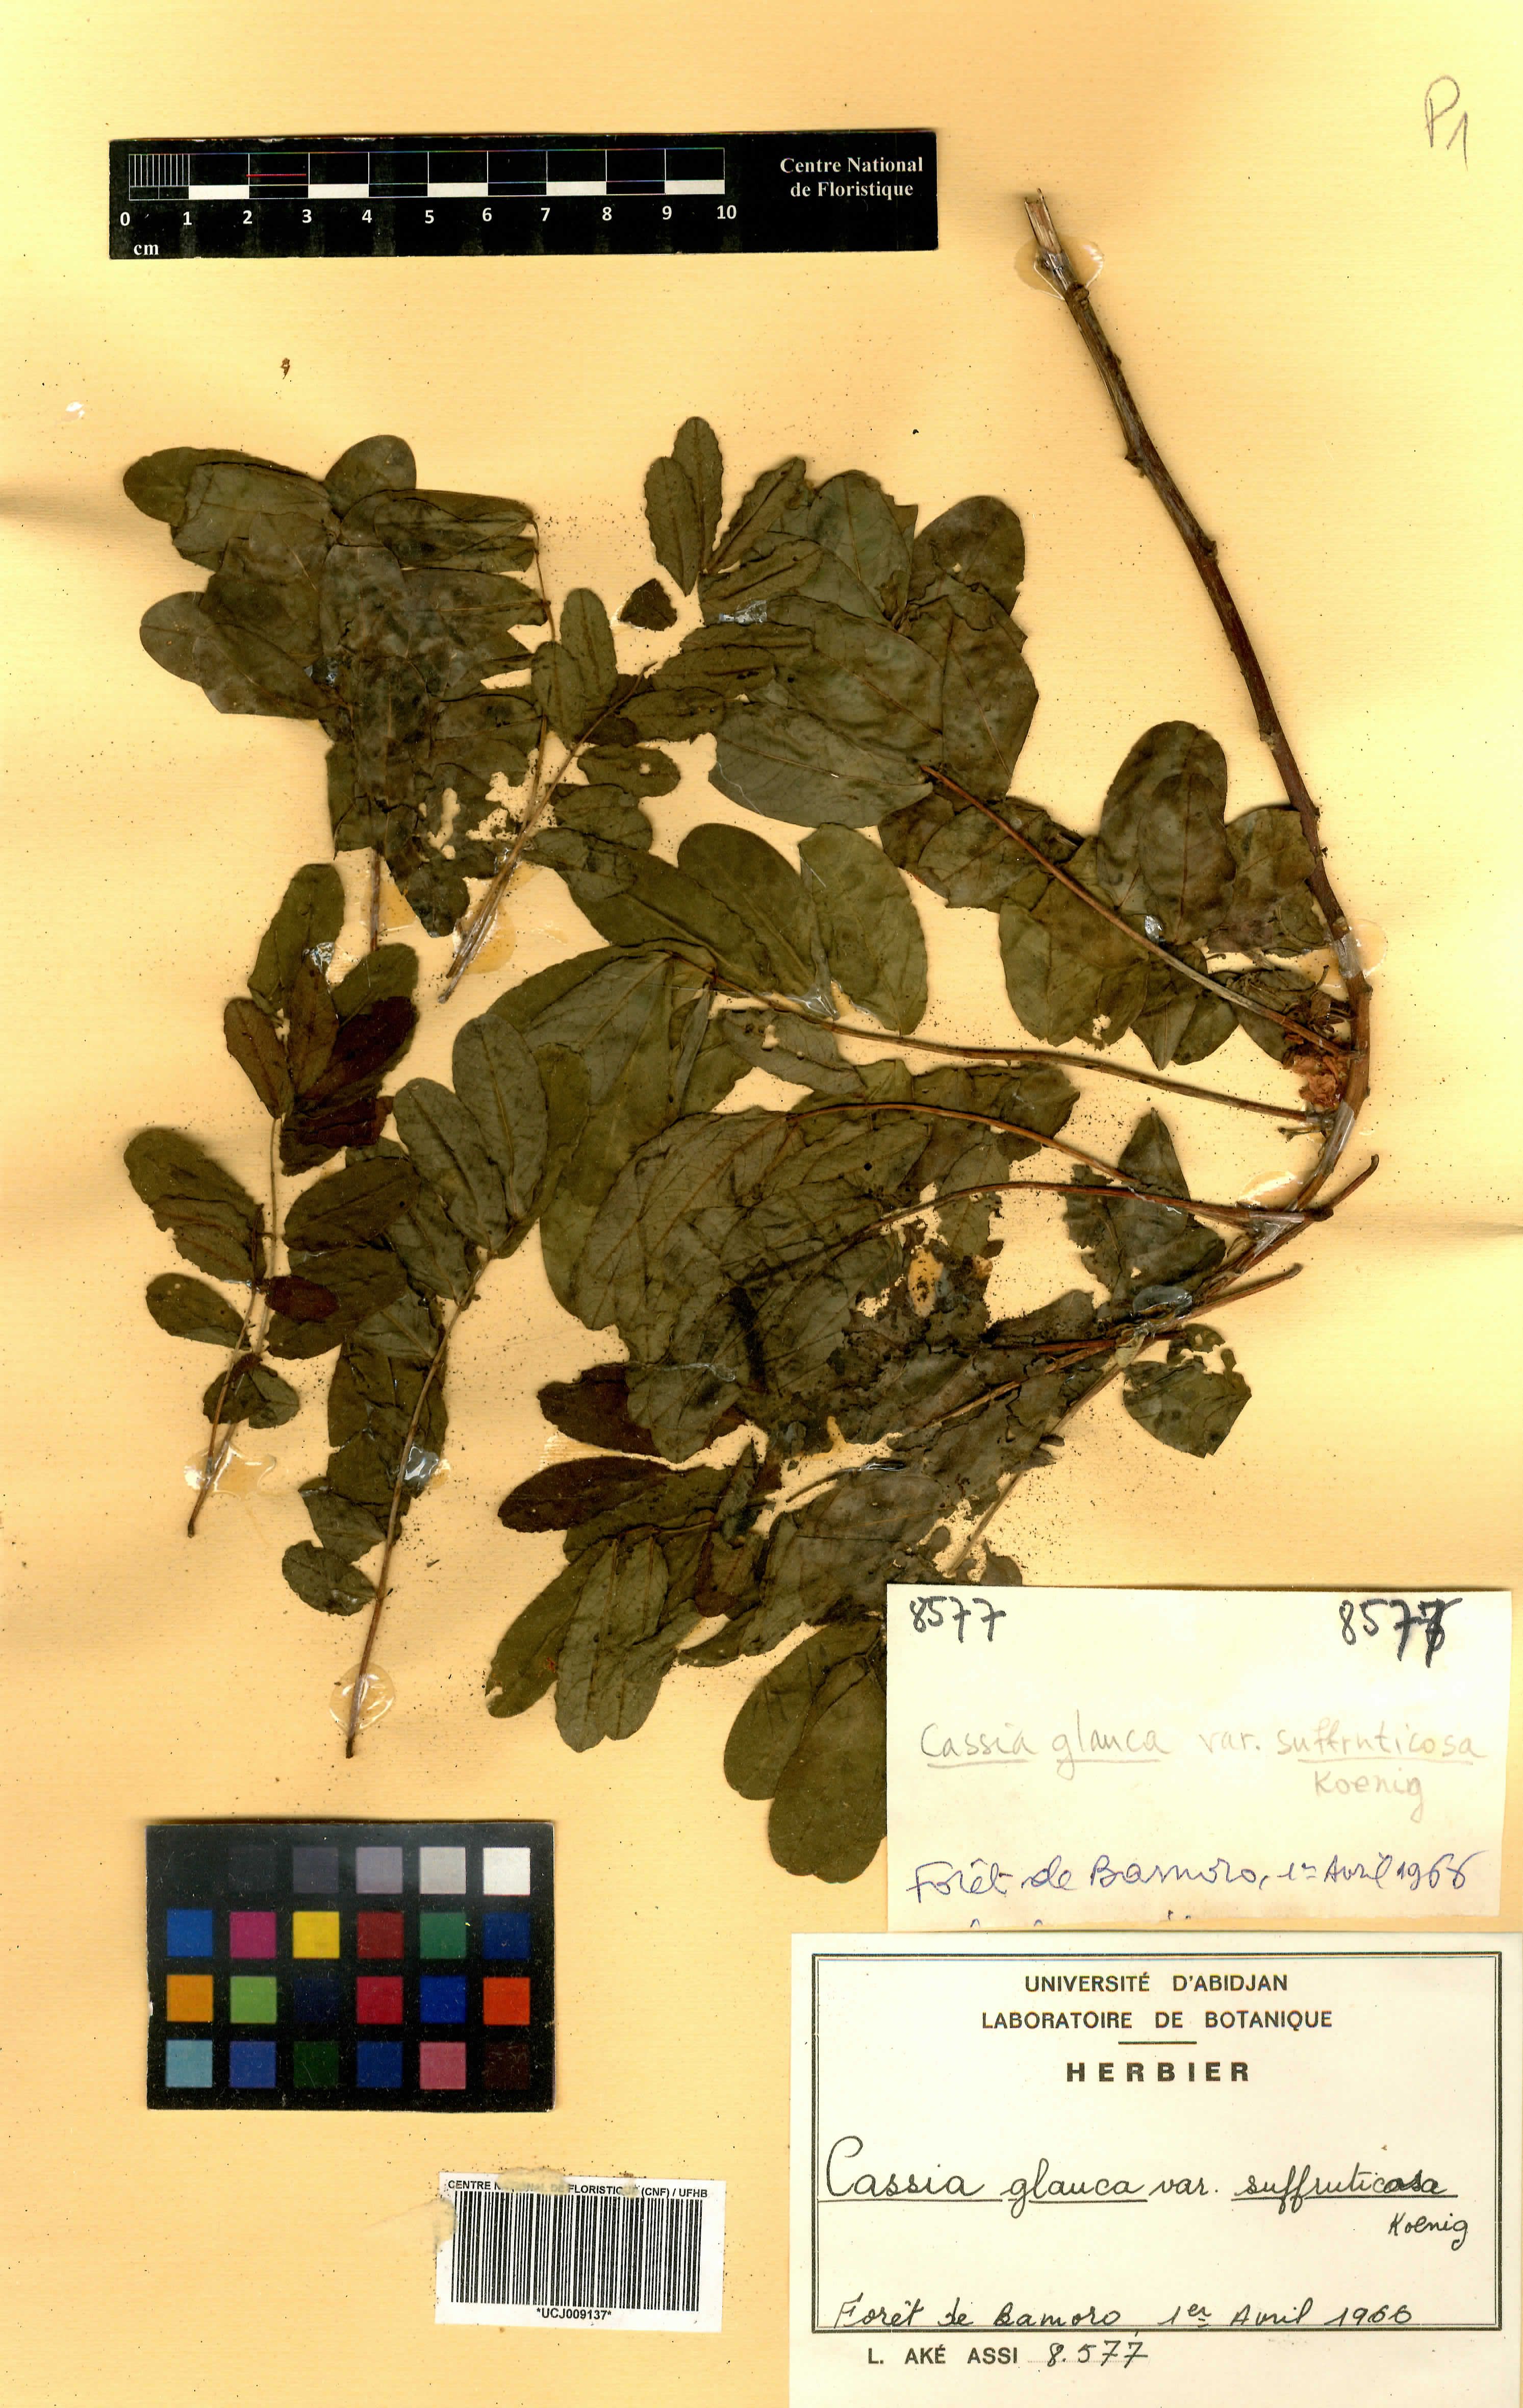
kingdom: Plantae
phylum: Tracheophyta
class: Magnoliopsida
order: Fabales
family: Fabaceae
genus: Senna
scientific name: Senna surattensis
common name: Glossy shower
